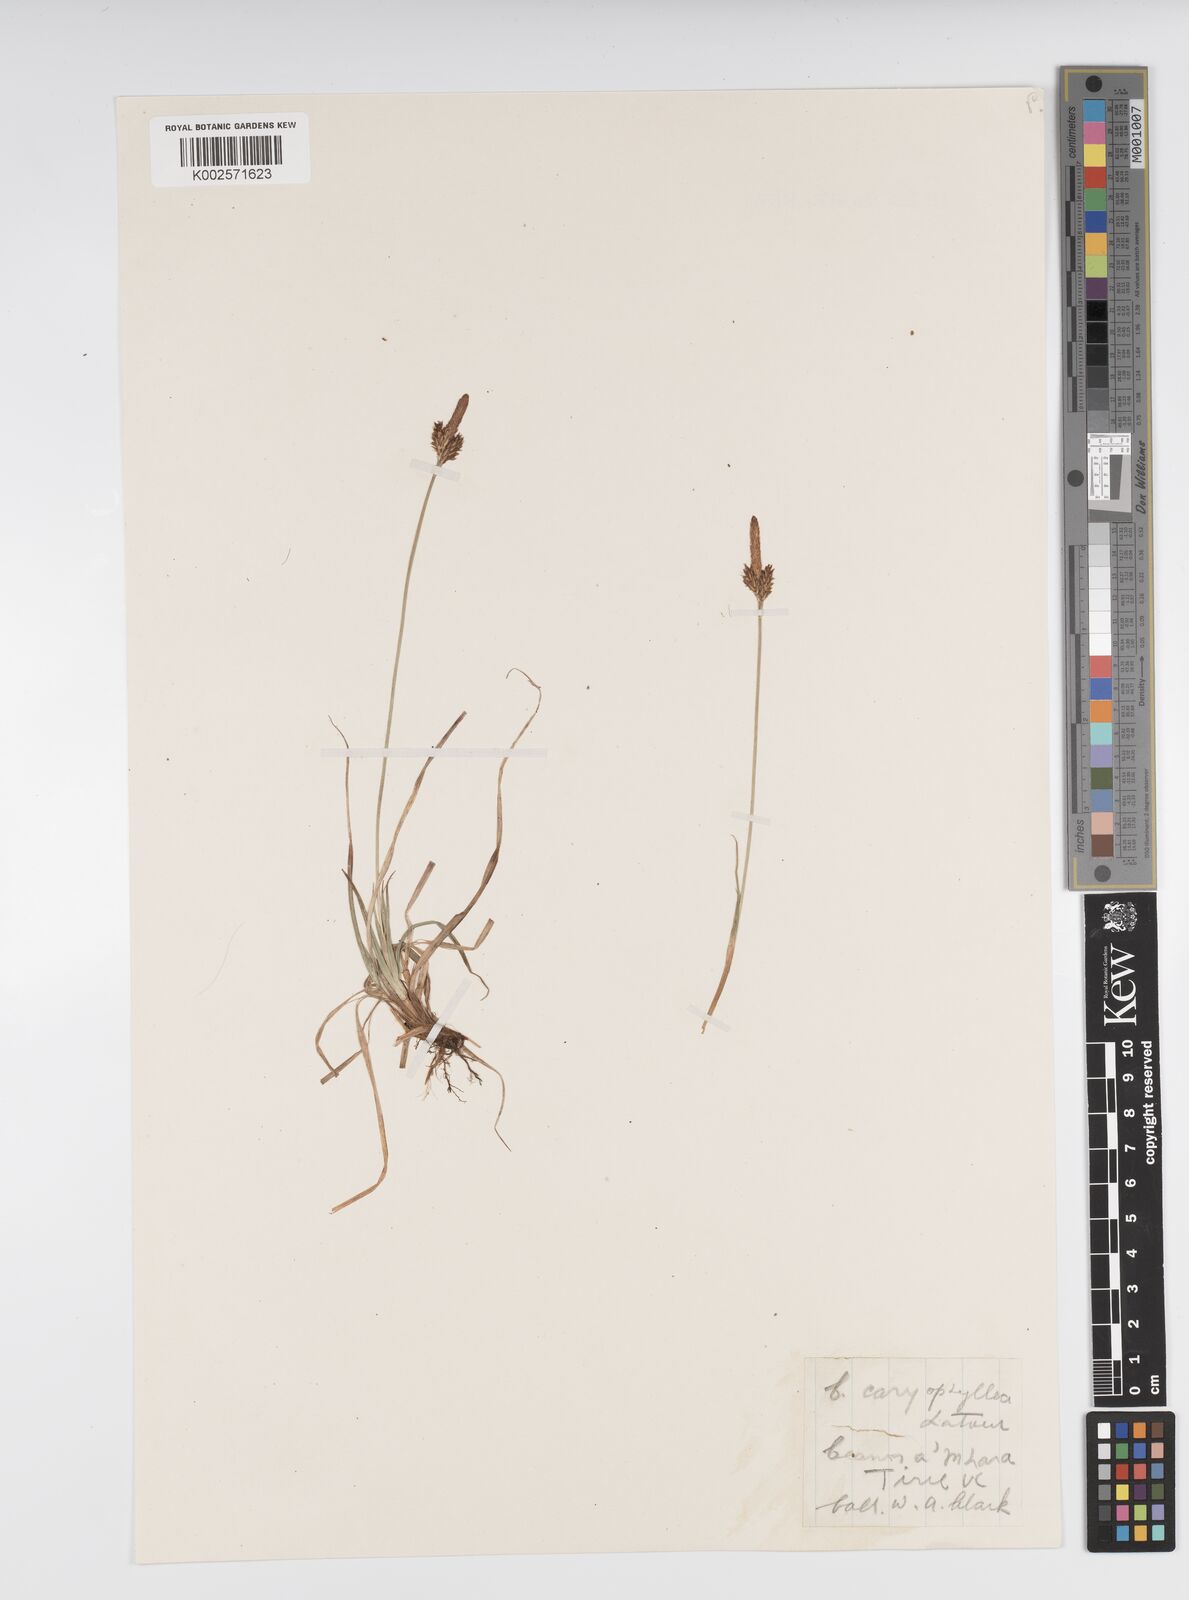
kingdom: Plantae
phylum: Tracheophyta
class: Liliopsida
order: Poales
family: Cyperaceae
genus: Carex
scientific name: Carex caryophyllea
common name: Spring sedge
